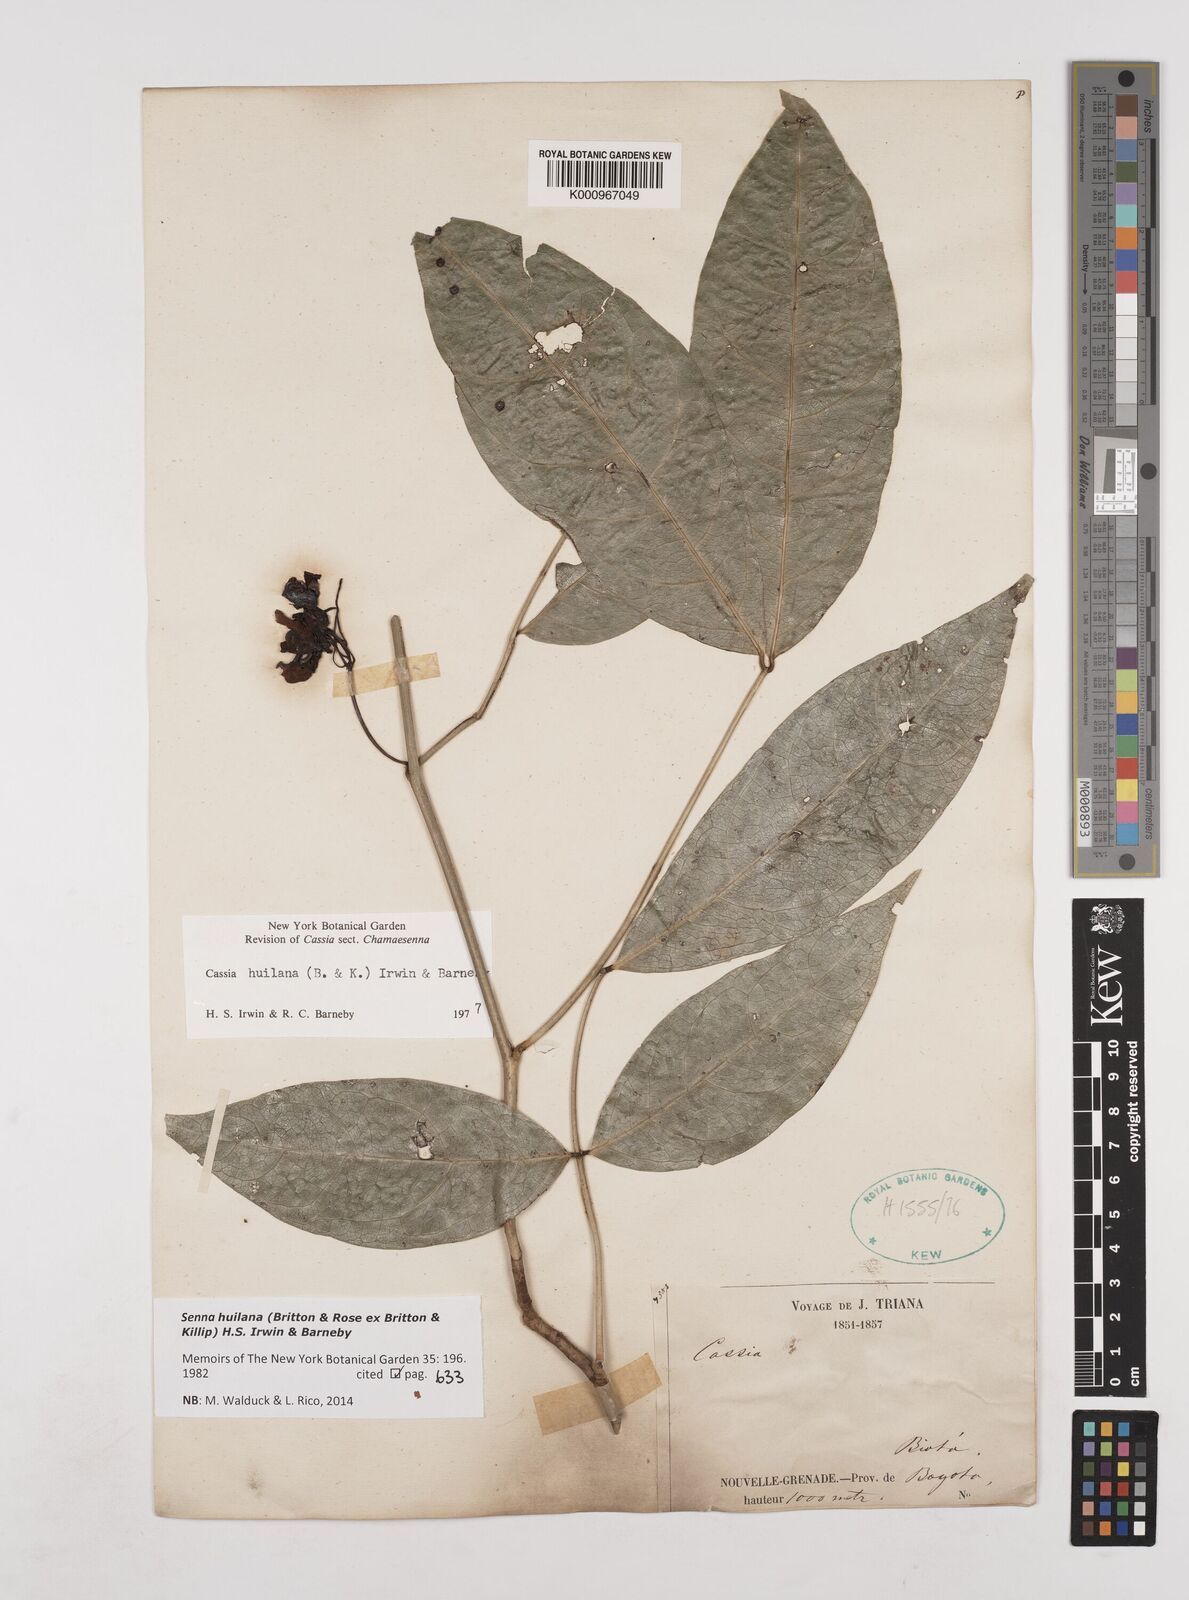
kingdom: Plantae
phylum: Tracheophyta
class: Magnoliopsida
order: Fabales
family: Fabaceae
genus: Senna
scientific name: Senna huilana
